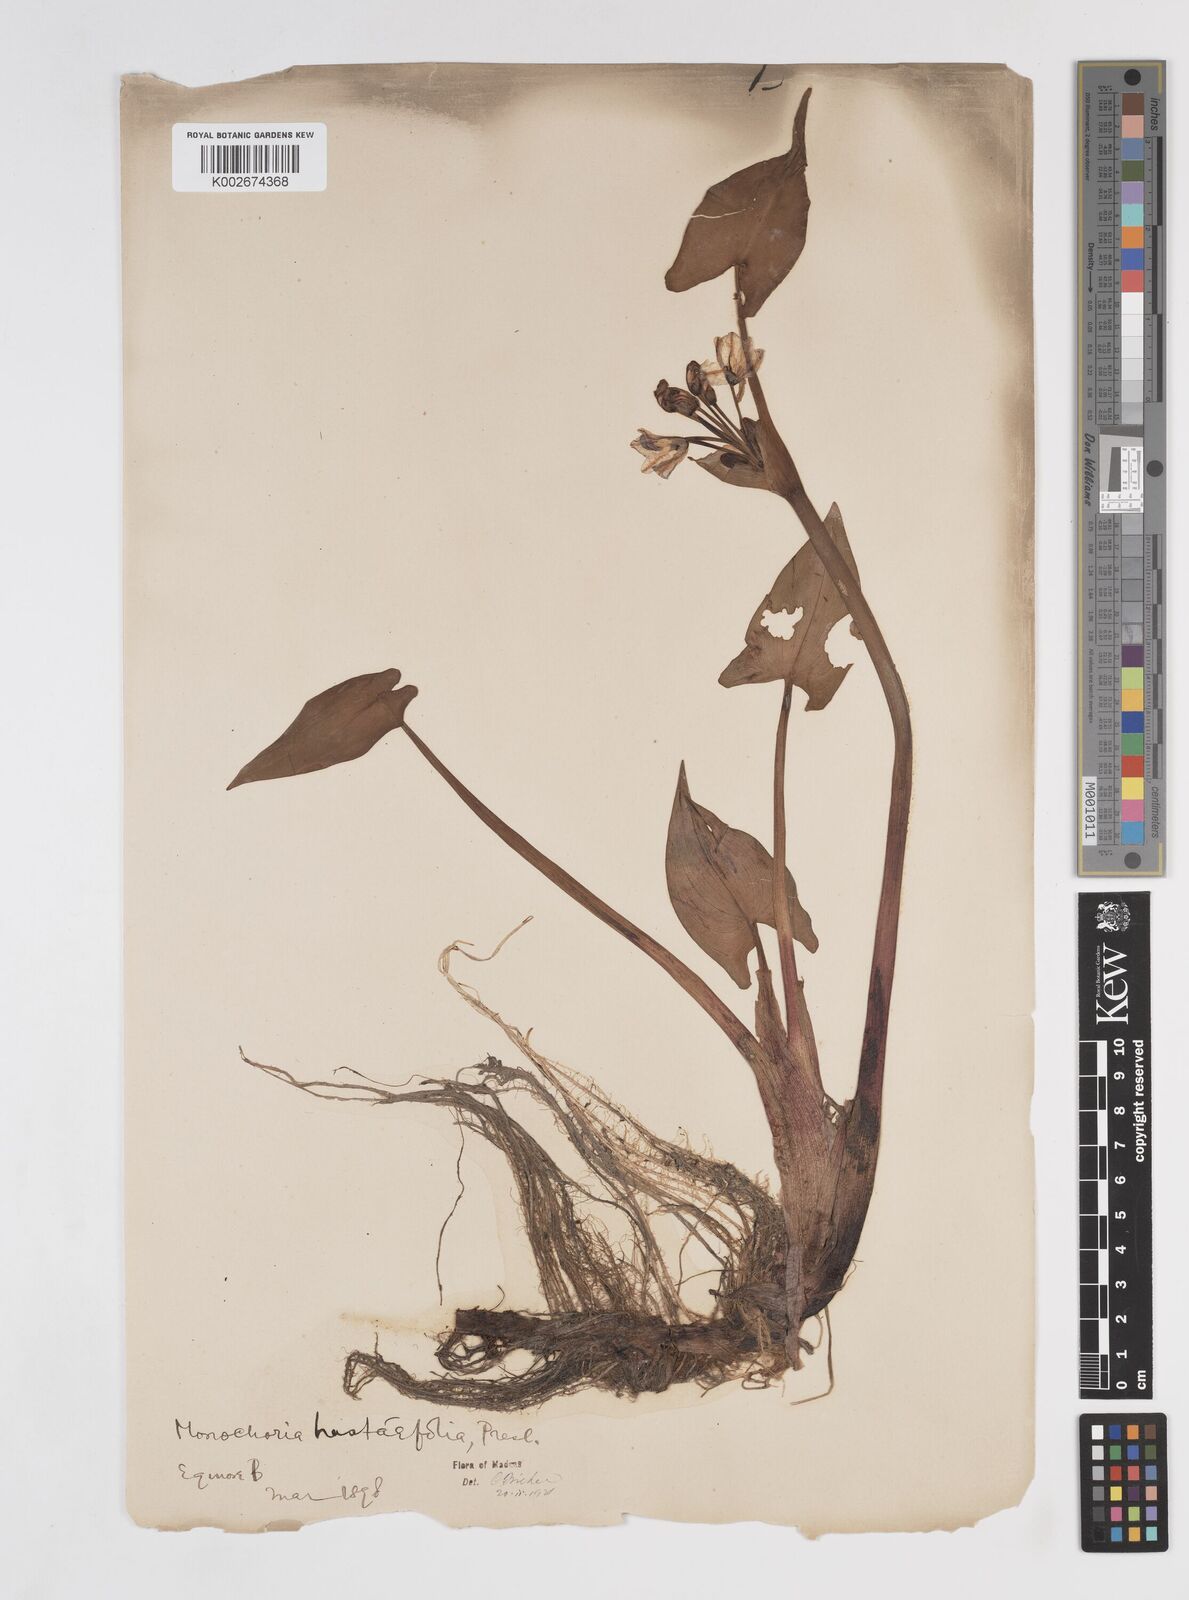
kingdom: Plantae
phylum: Tracheophyta
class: Liliopsida
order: Commelinales
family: Pontederiaceae
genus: Pontederia
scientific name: Pontederia hastata
